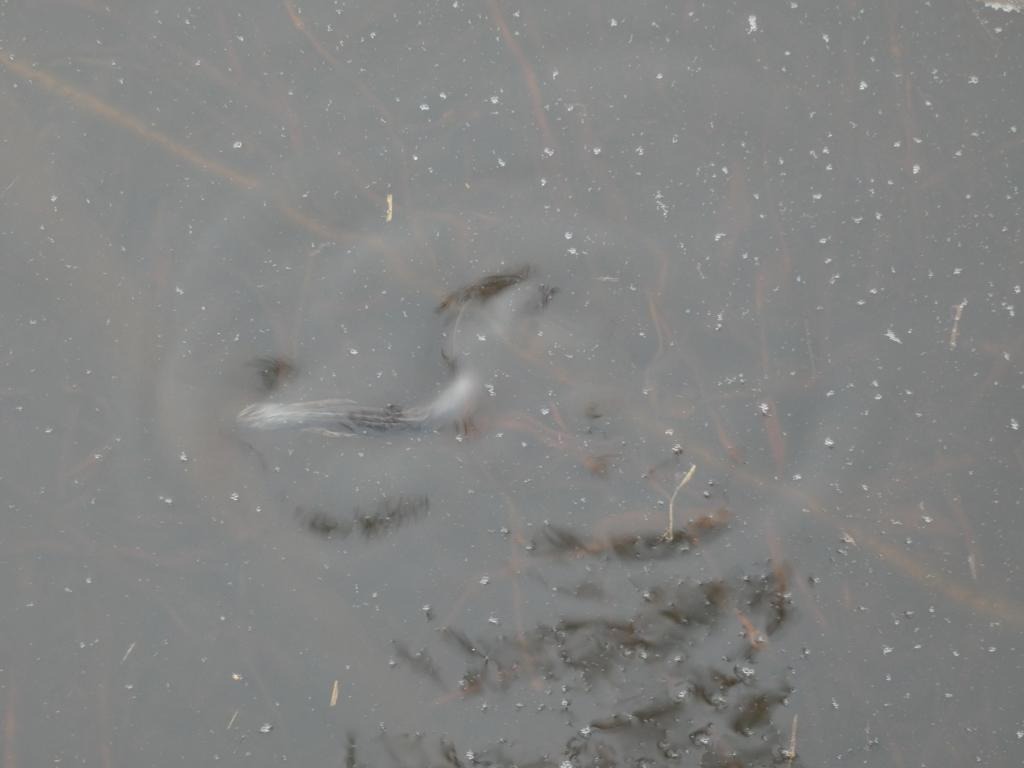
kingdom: Animalia
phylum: Chordata
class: Amphibia
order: Caudata
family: Salamandridae
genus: Lissotriton
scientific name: Lissotriton vulgaris
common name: Lille vandsalamander
